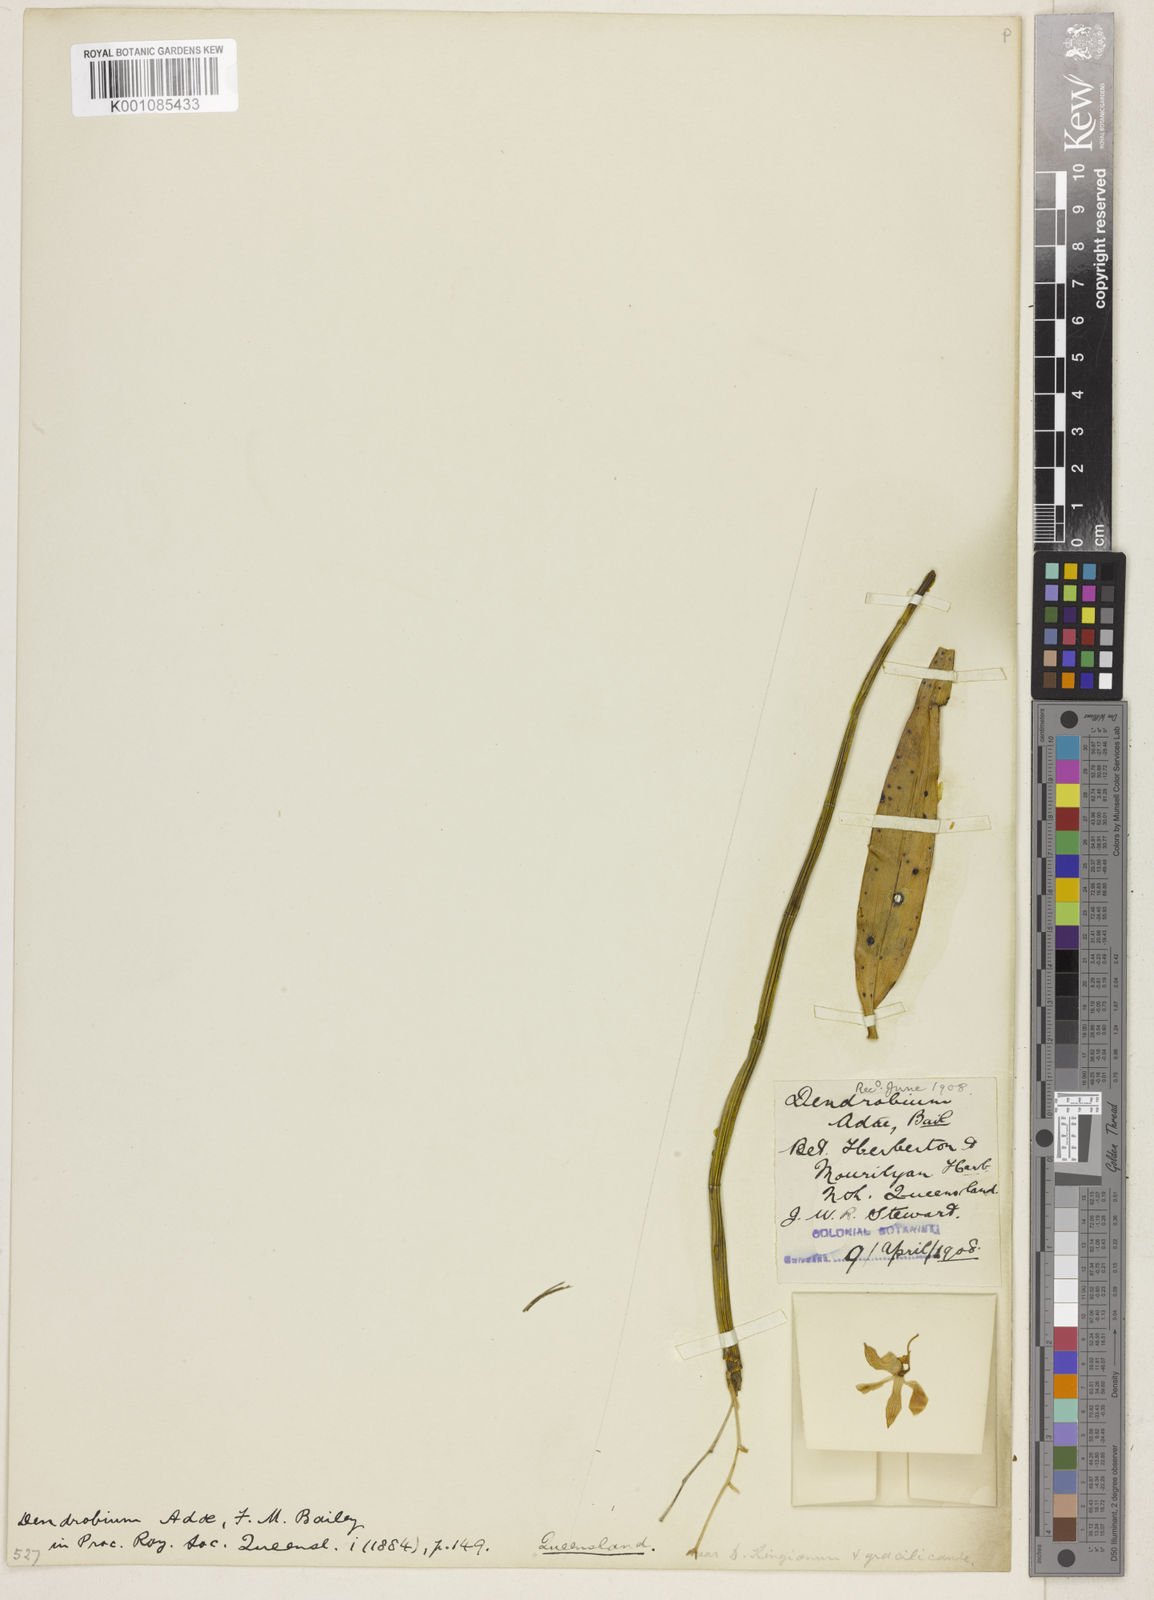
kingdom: Plantae
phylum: Tracheophyta
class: Liliopsida
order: Asparagales
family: Orchidaceae
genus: Dendrobium
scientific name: Dendrobium adae
